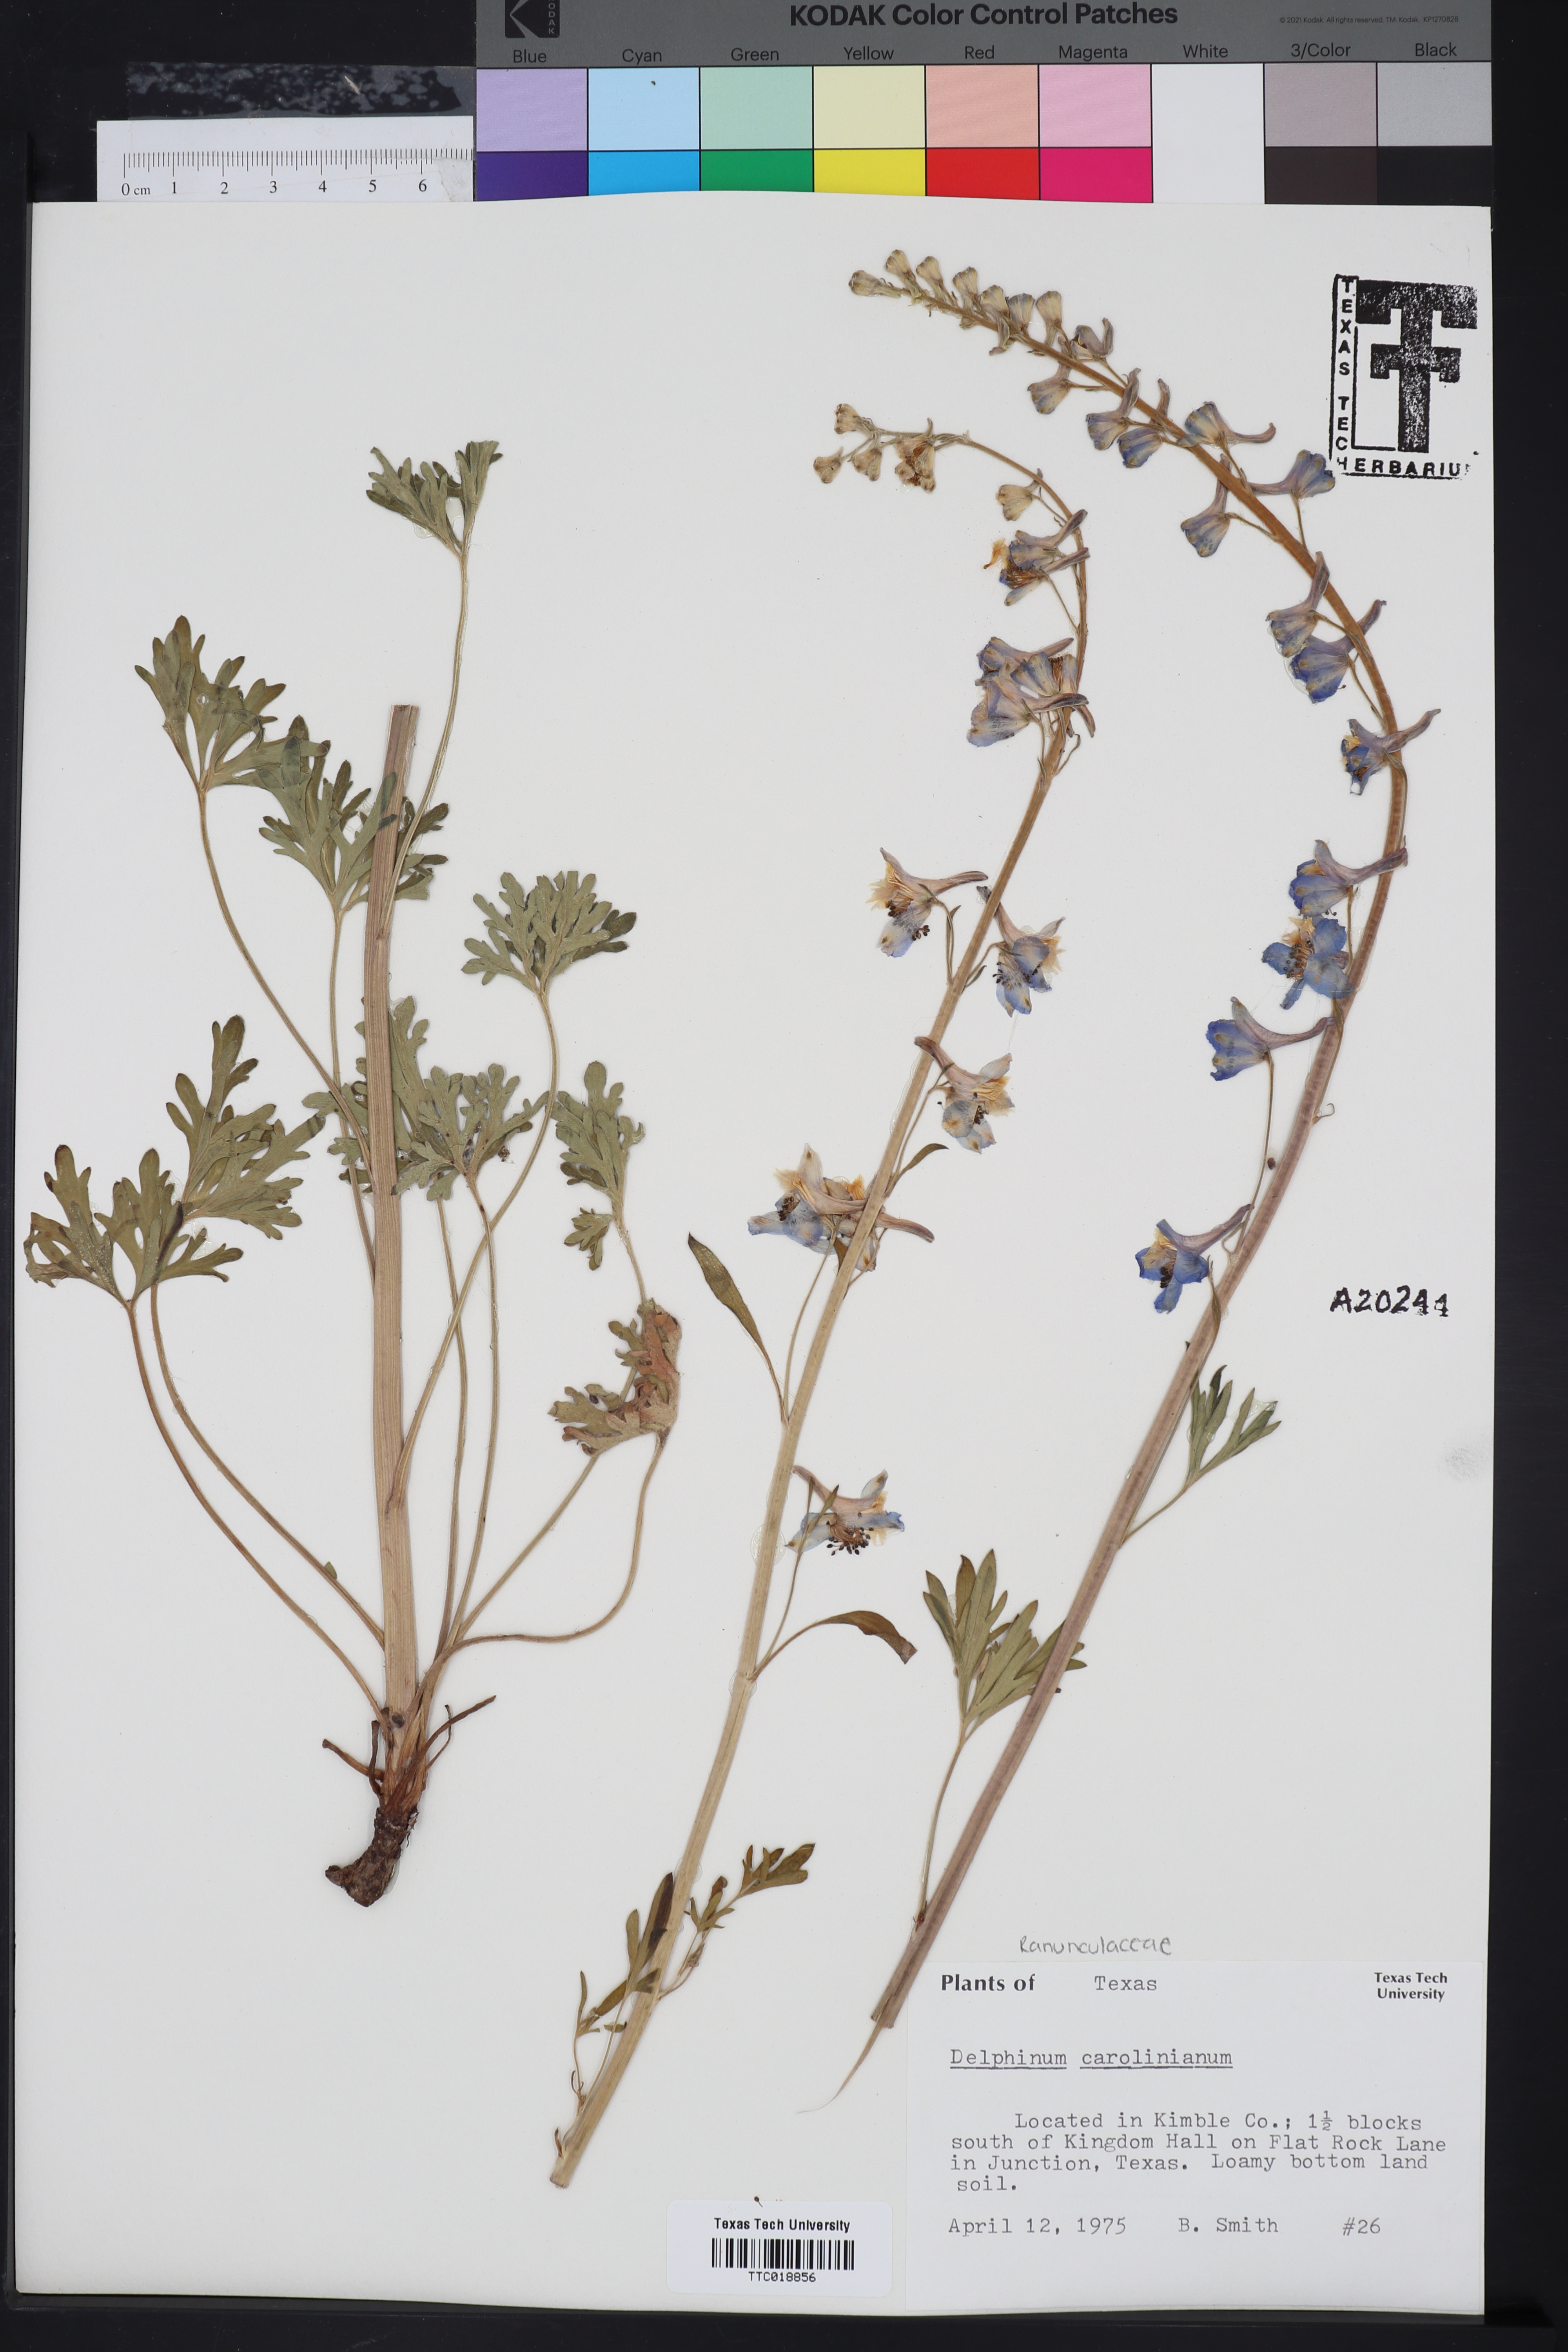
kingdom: Plantae
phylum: Tracheophyta
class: Magnoliopsida
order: Ranunculales
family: Ranunculaceae
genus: Delphinium
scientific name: Delphinium carolinianum
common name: Carolina larkspur
